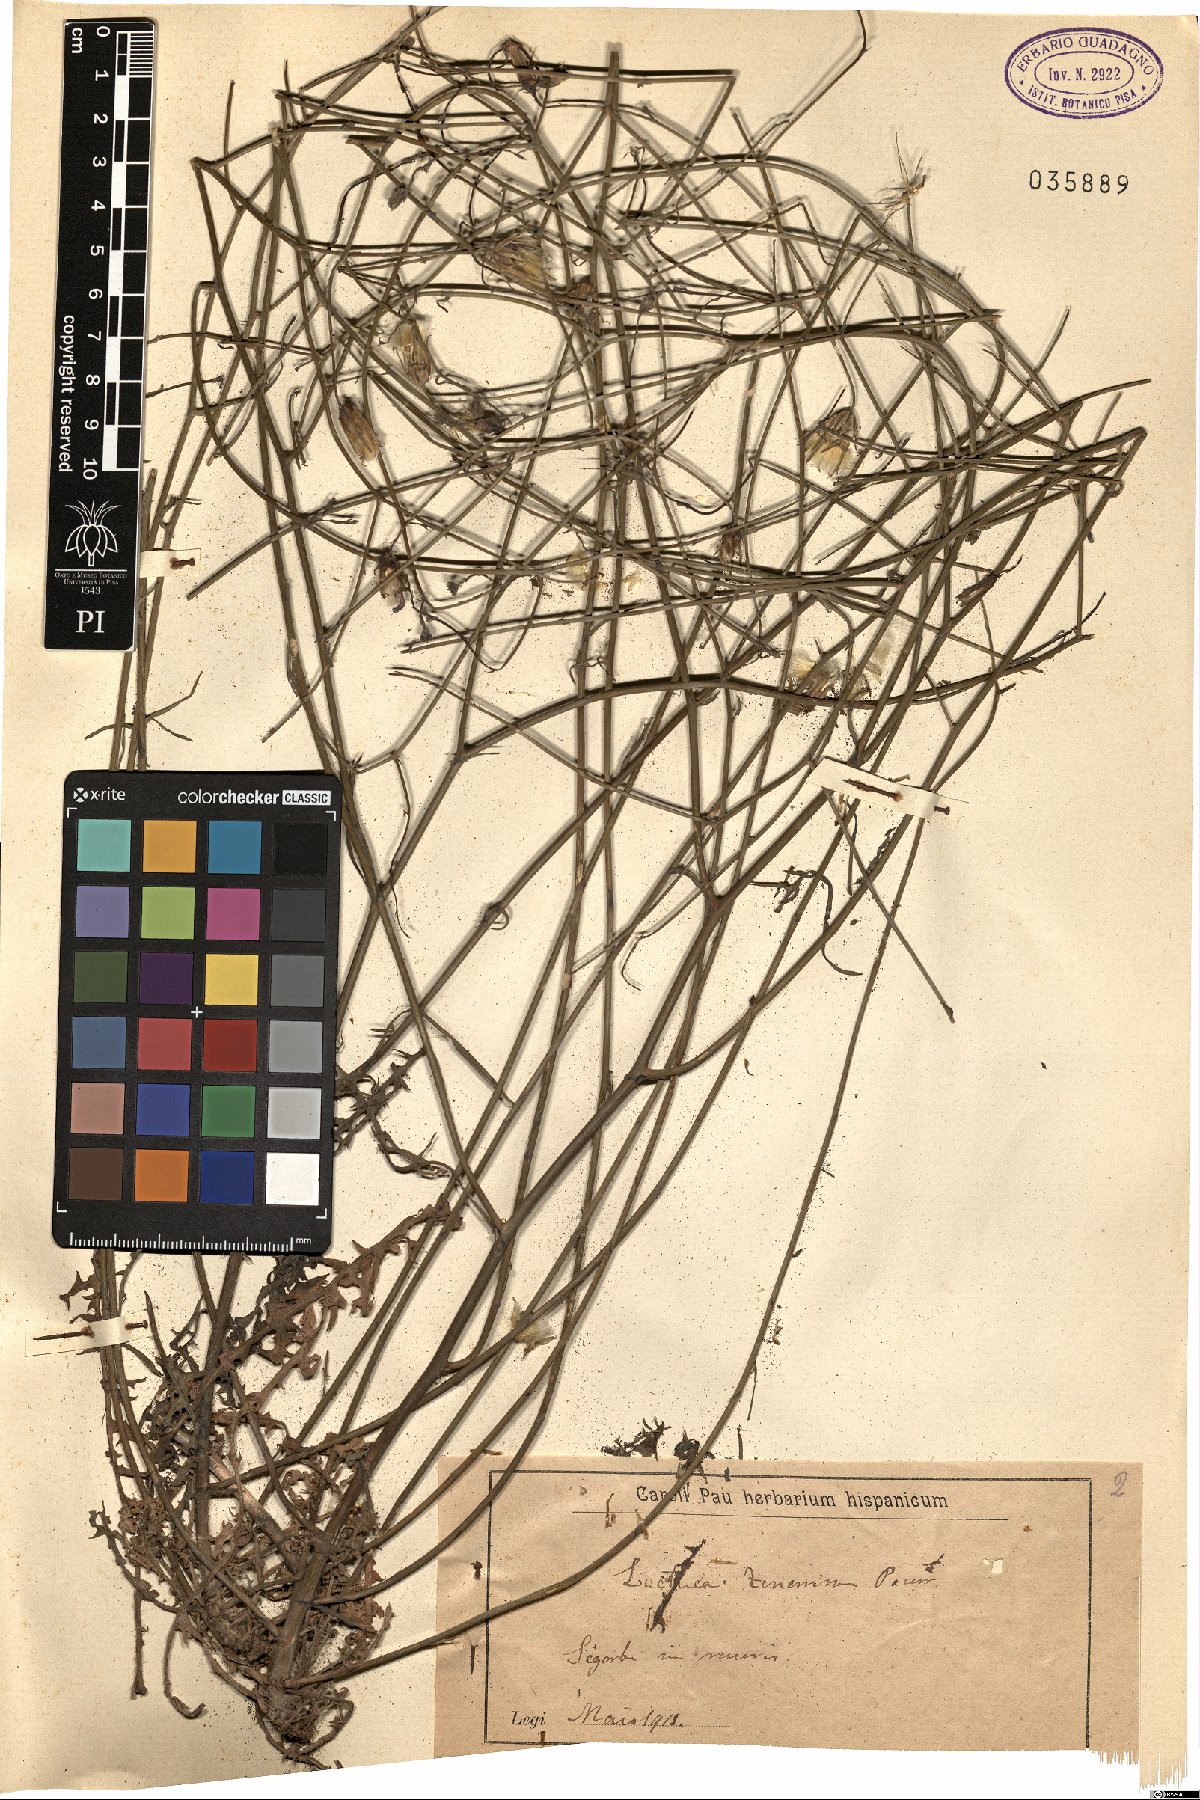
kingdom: Plantae
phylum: Tracheophyta
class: Magnoliopsida
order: Asterales
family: Asteraceae
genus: Lactuca
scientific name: Lactuca tenerrima
